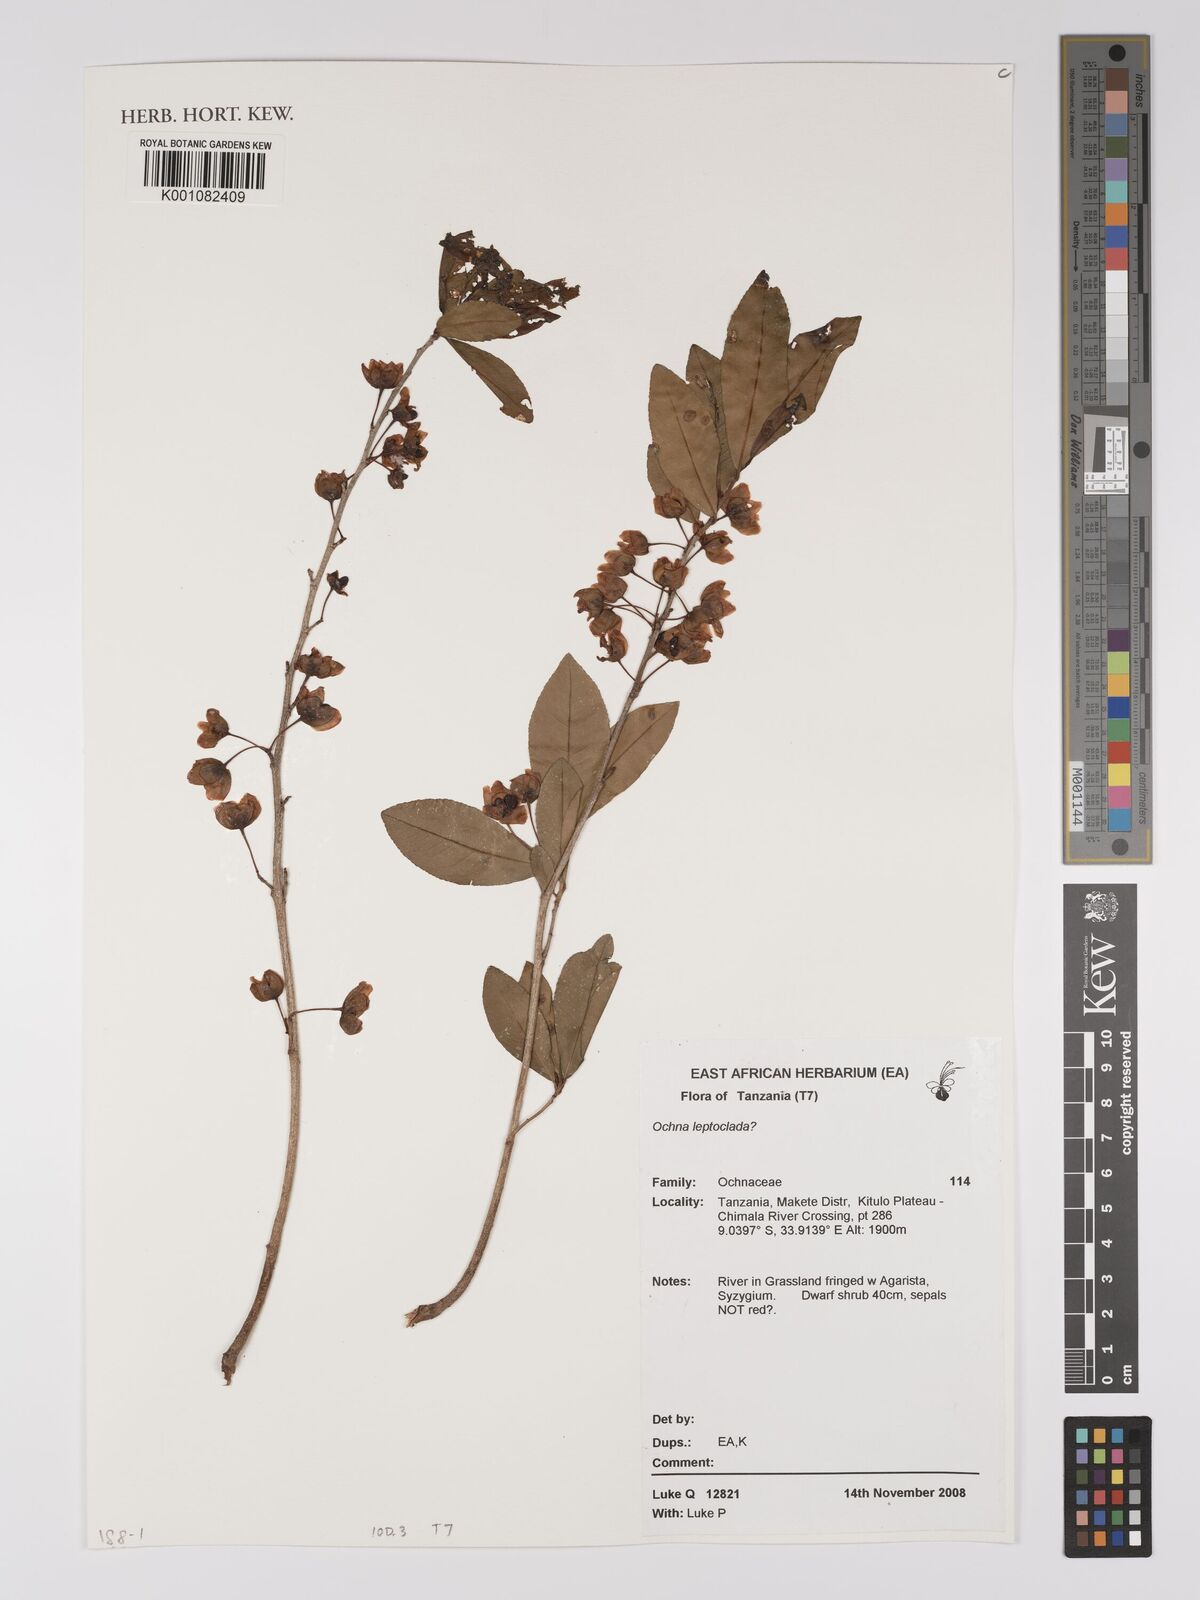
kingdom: Plantae
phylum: Tracheophyta
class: Magnoliopsida
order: Malpighiales
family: Ochnaceae
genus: Ochna
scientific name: Ochna leptoclada
